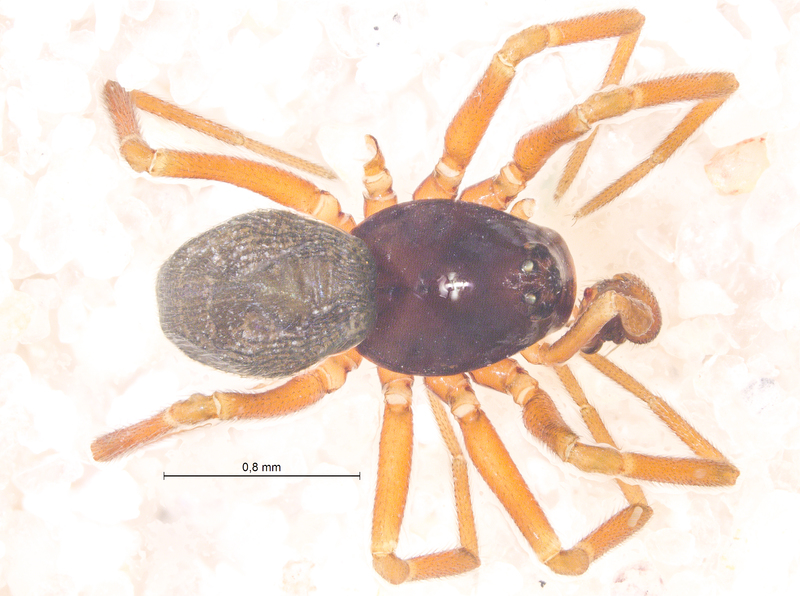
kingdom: Animalia
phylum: Arthropoda
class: Arachnida
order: Araneae
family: Linyphiidae
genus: Dicymbium
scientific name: Dicymbium brevisetosum
